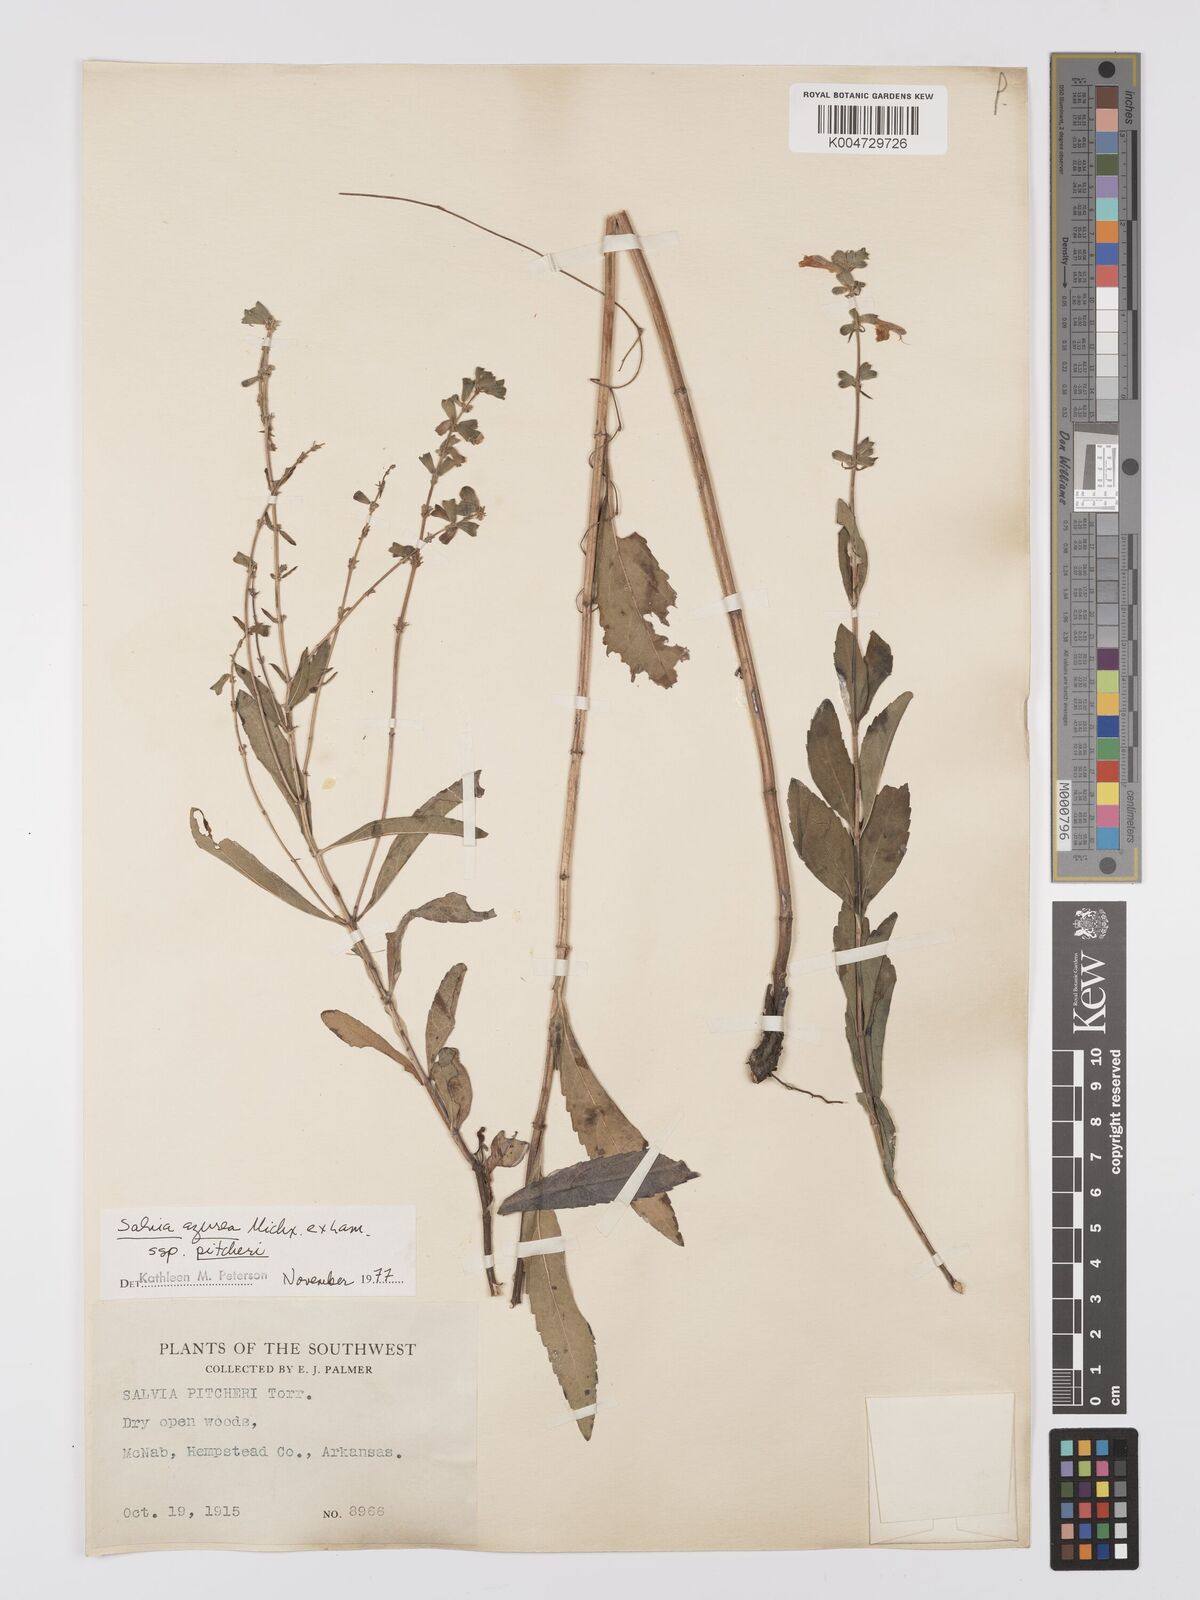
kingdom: Plantae
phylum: Tracheophyta
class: Magnoliopsida
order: Lamiales
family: Lamiaceae
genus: Salvia
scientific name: Salvia azurea
